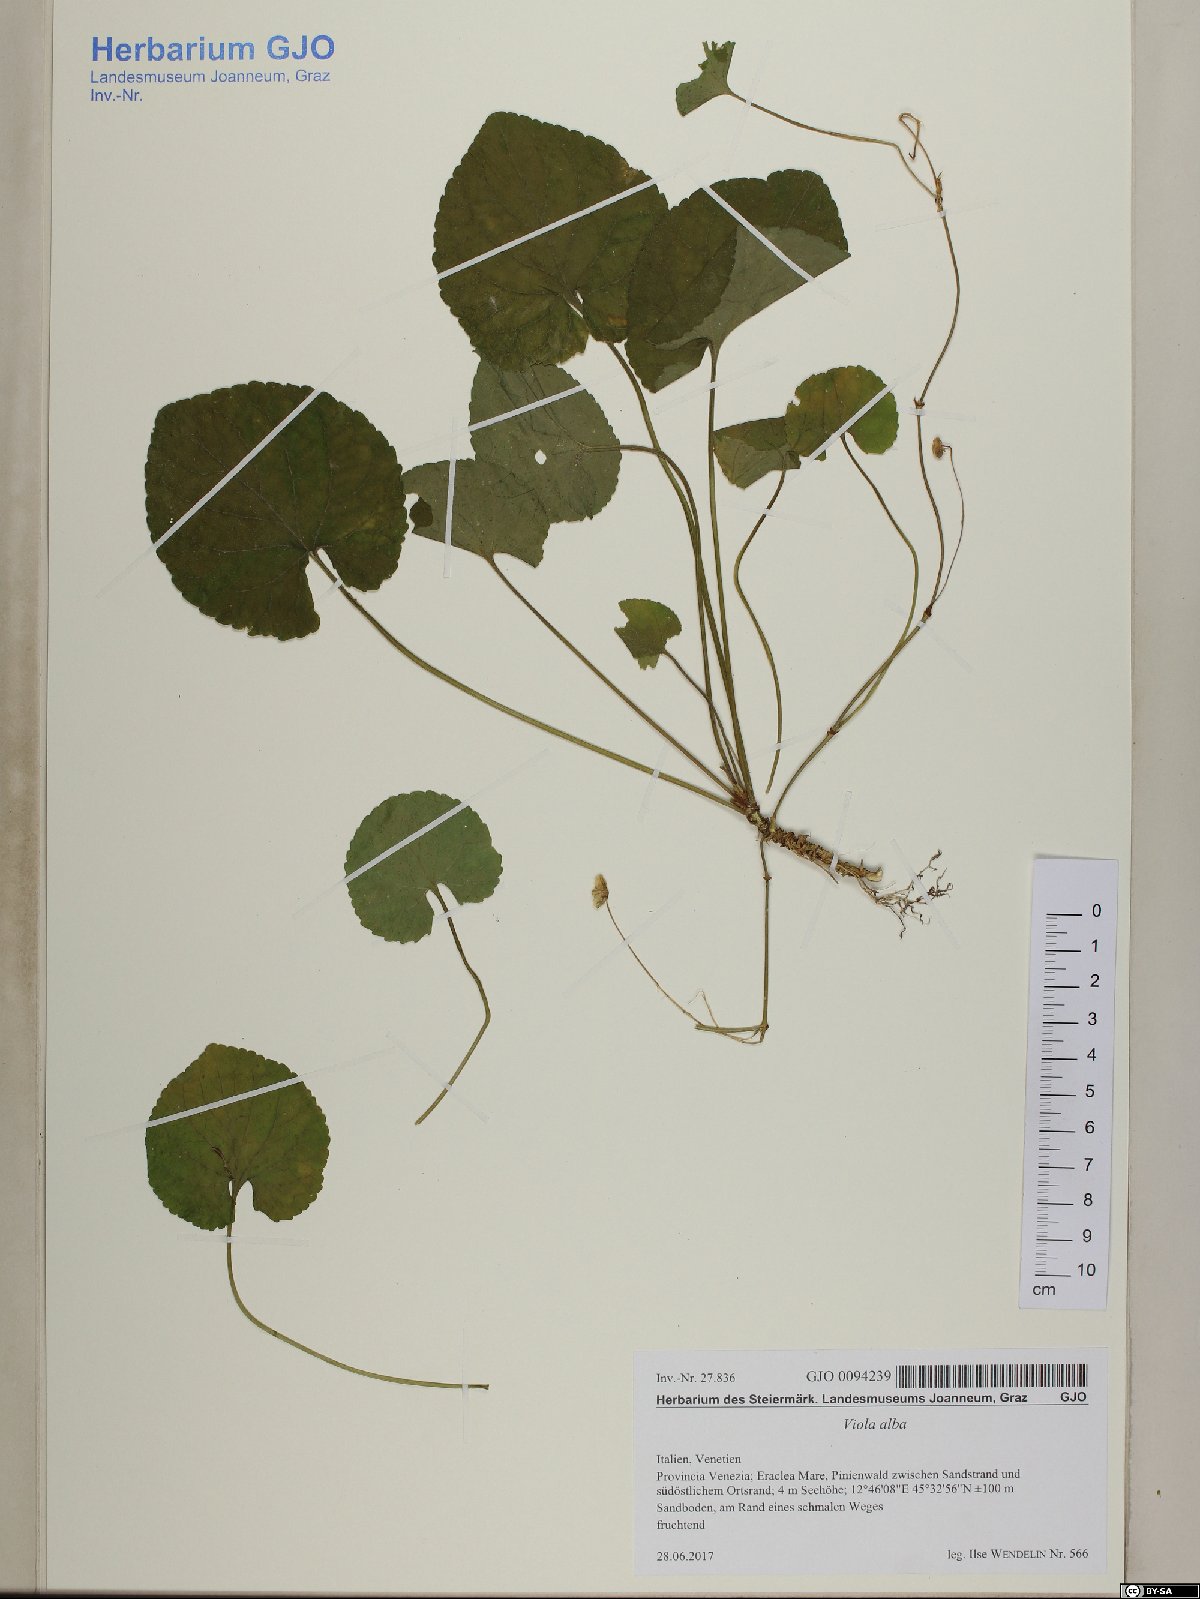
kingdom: Plantae
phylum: Tracheophyta
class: Magnoliopsida
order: Malpighiales
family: Violaceae
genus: Viola
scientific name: Viola alba
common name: White violet
